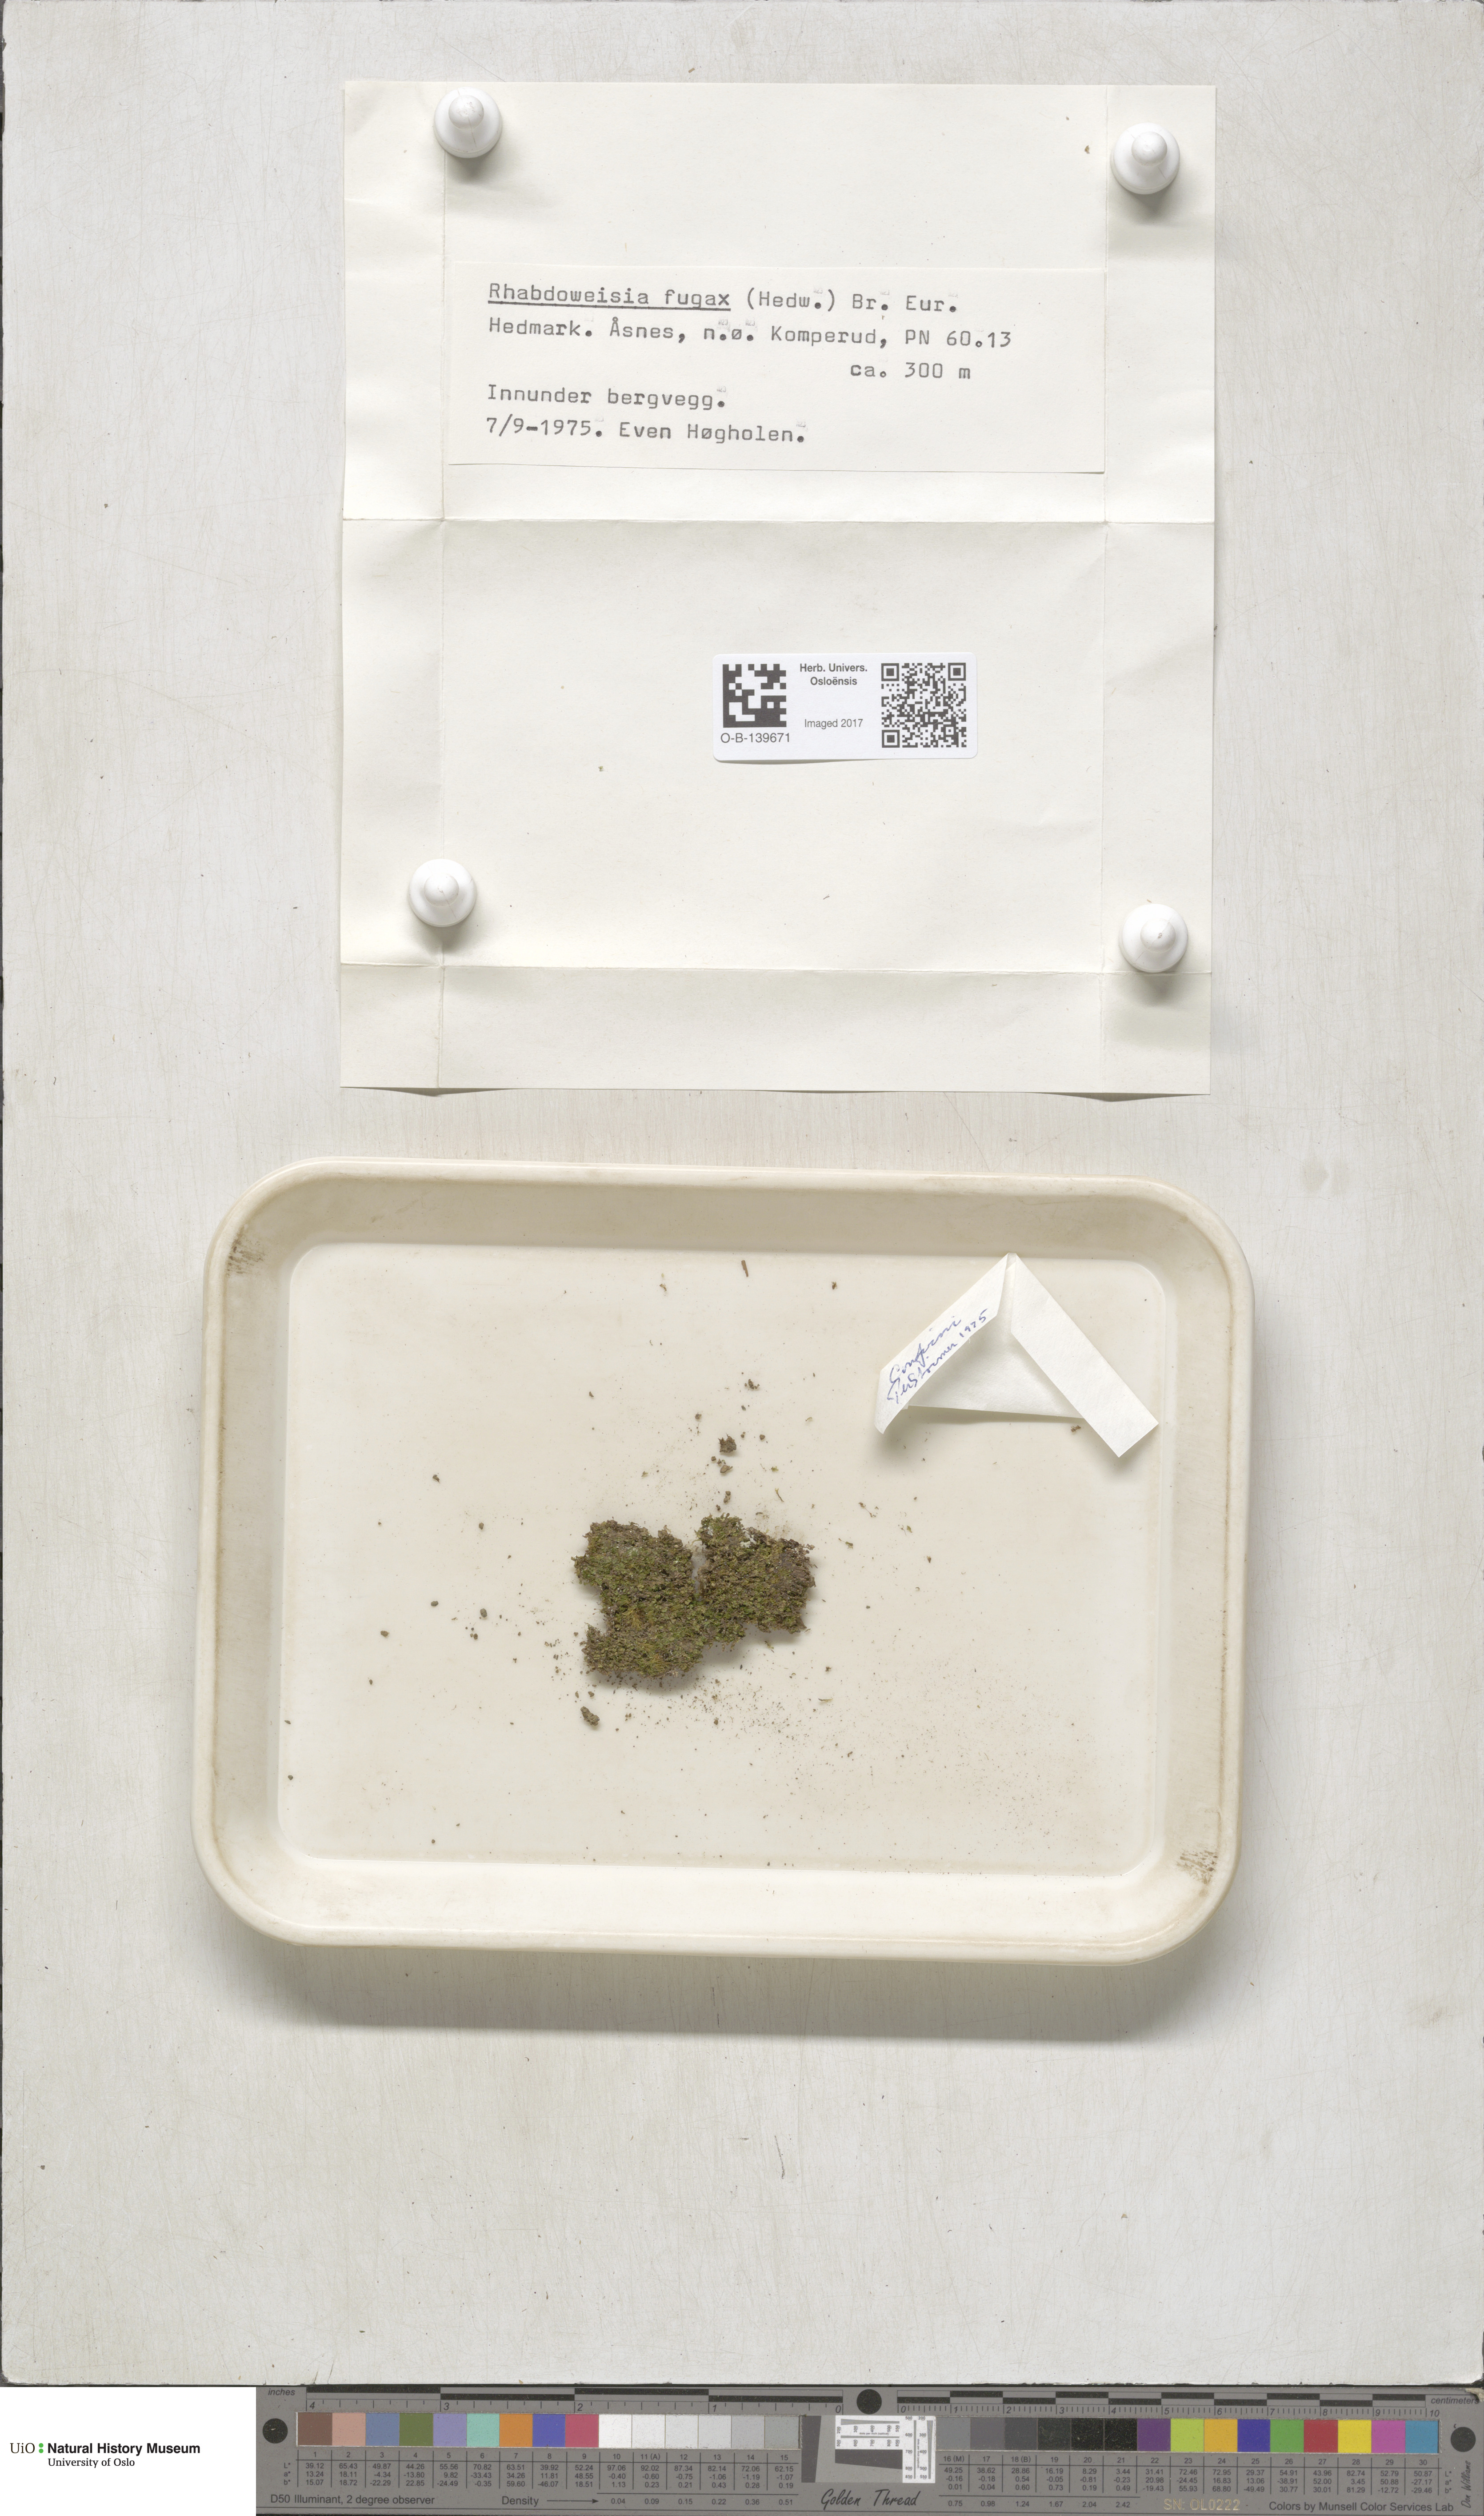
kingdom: Plantae
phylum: Bryophyta
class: Bryopsida
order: Dicranales
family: Rhabdoweisiaceae
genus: Rhabdoweisia
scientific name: Rhabdoweisia fugax
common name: Dwarf streak-moss
